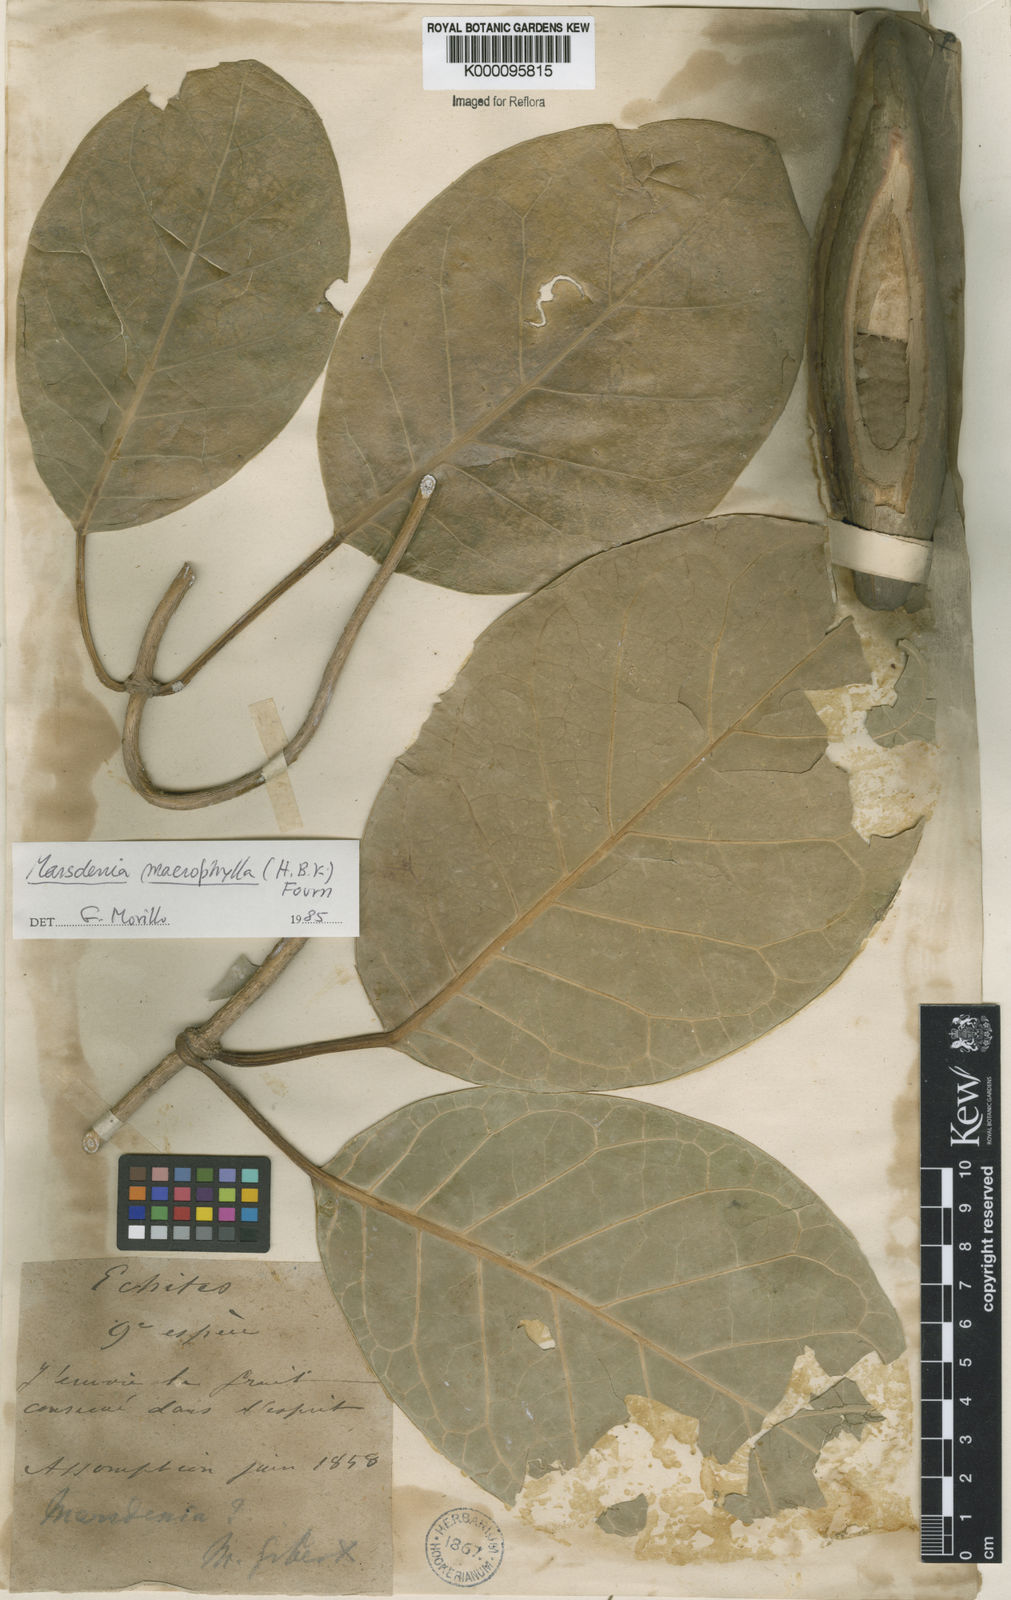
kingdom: Plantae
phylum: Tracheophyta
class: Magnoliopsida
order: Gentianales
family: Apocynaceae
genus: Ruehssia
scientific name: Ruehssia macrophylla
